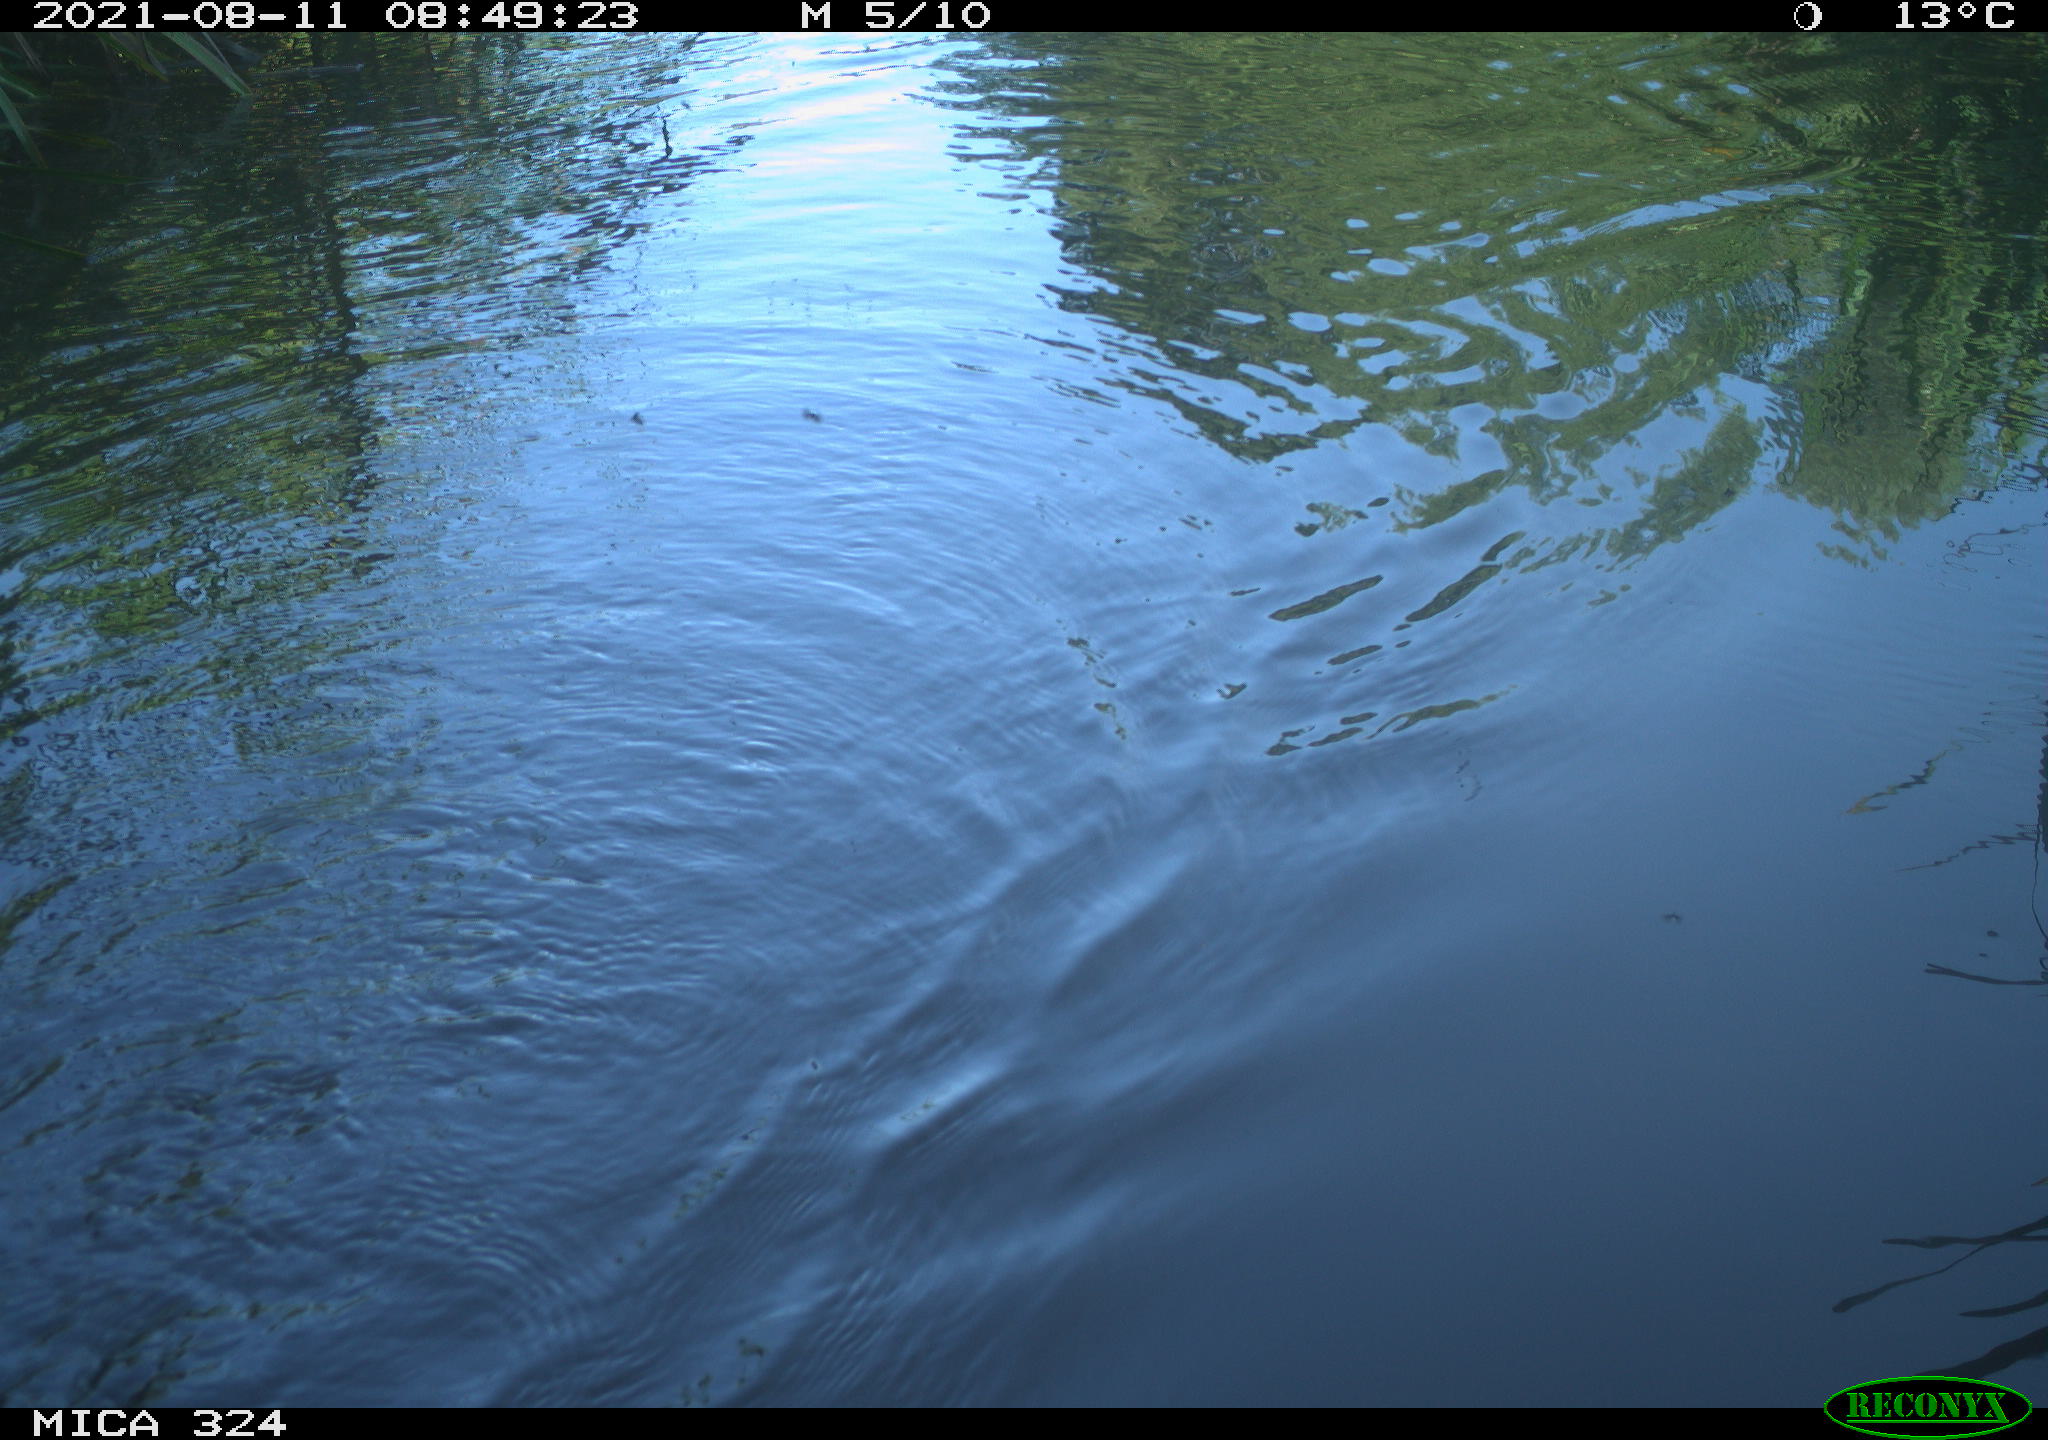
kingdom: Animalia
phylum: Chordata
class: Mammalia
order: Rodentia
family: Cricetidae
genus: Ondatra
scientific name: Ondatra zibethicus
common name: Muskrat
